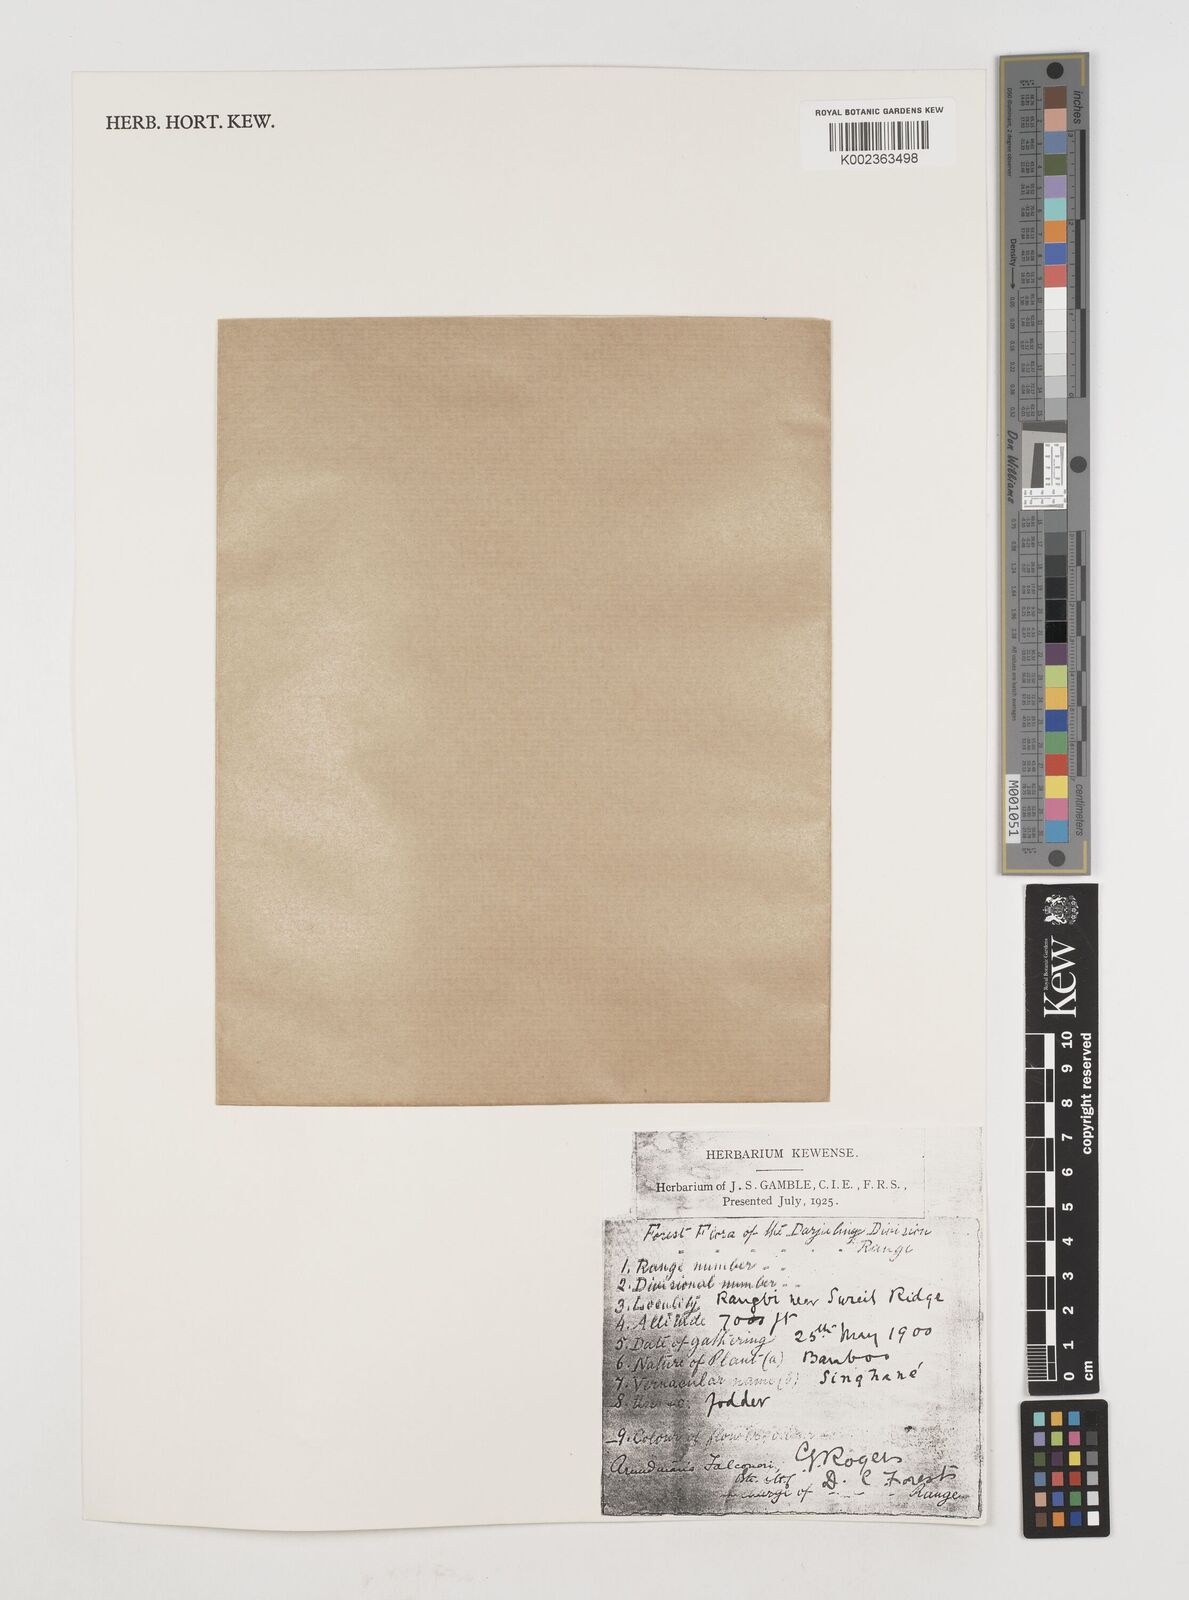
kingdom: Plantae
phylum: Tracheophyta
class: Liliopsida
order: Poales
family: Poaceae
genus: Himalayacalamus
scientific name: Himalayacalamus falconeri
